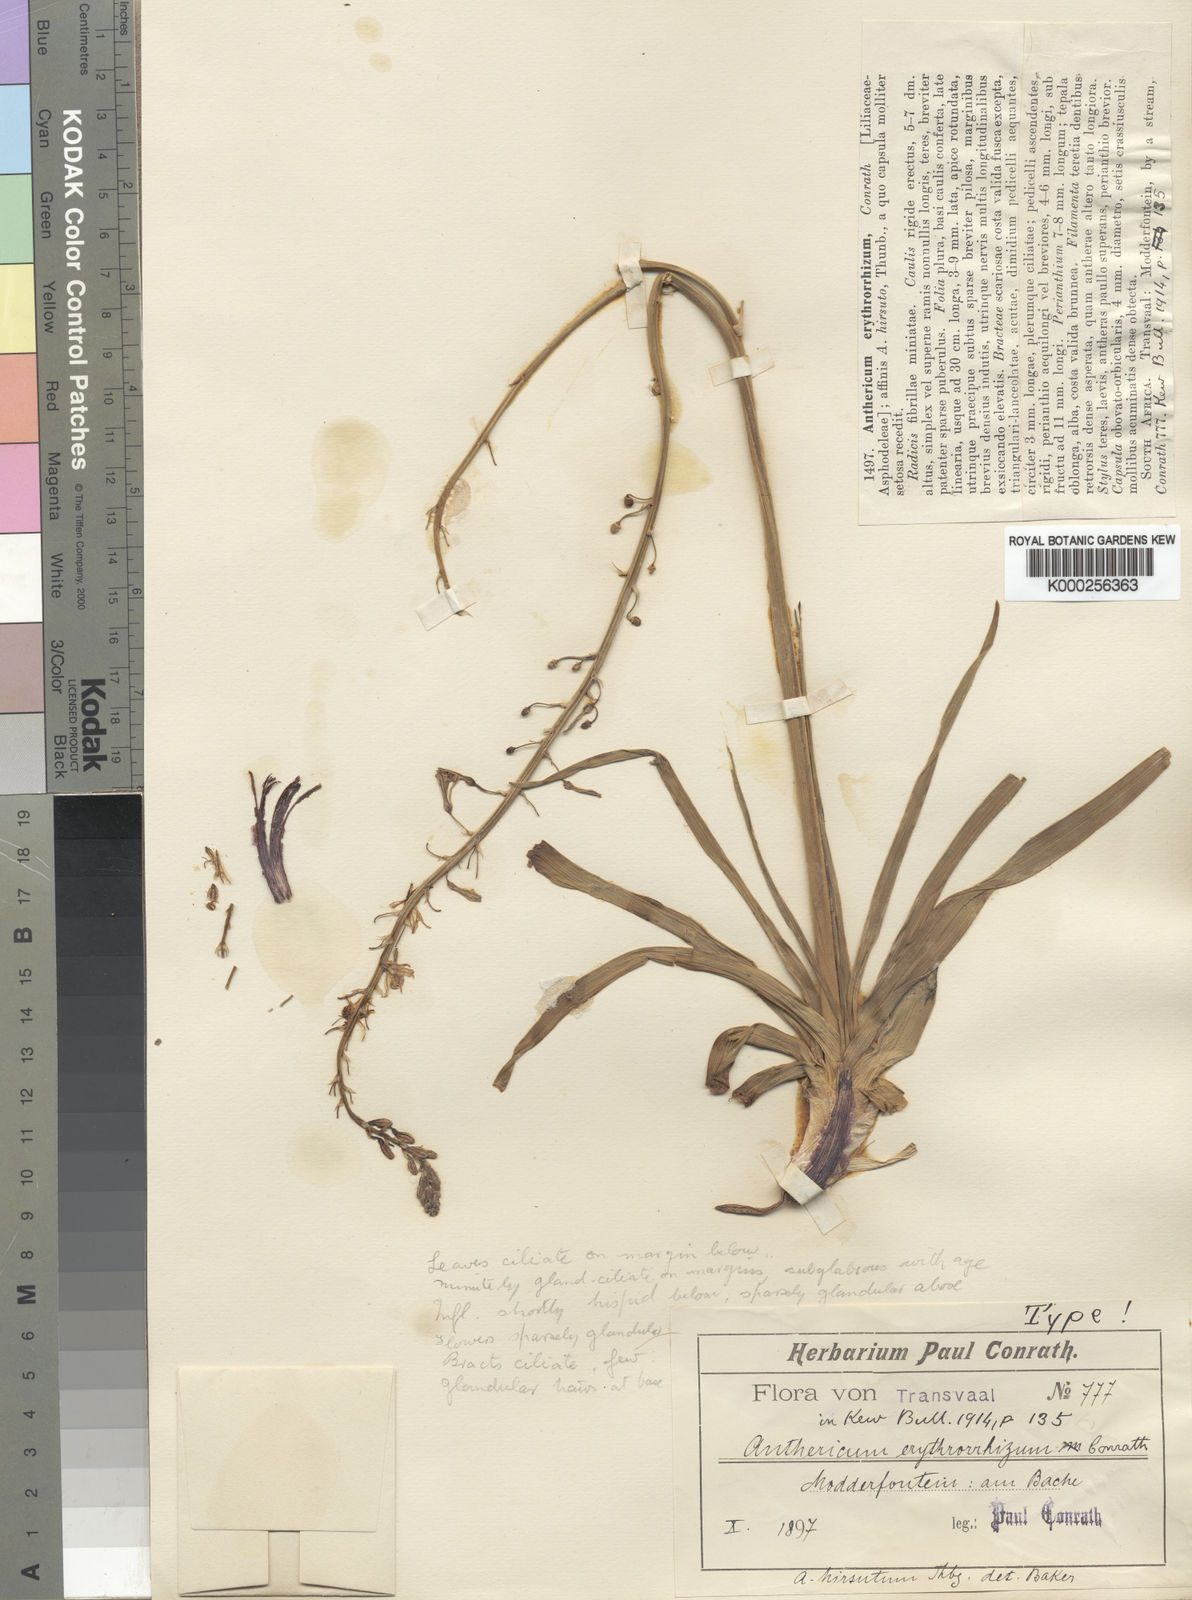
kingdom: Plantae
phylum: Tracheophyta
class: Liliopsida
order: Asparagales
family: Asphodelaceae
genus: Trachyandra
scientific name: Trachyandra erythrorrhiza
